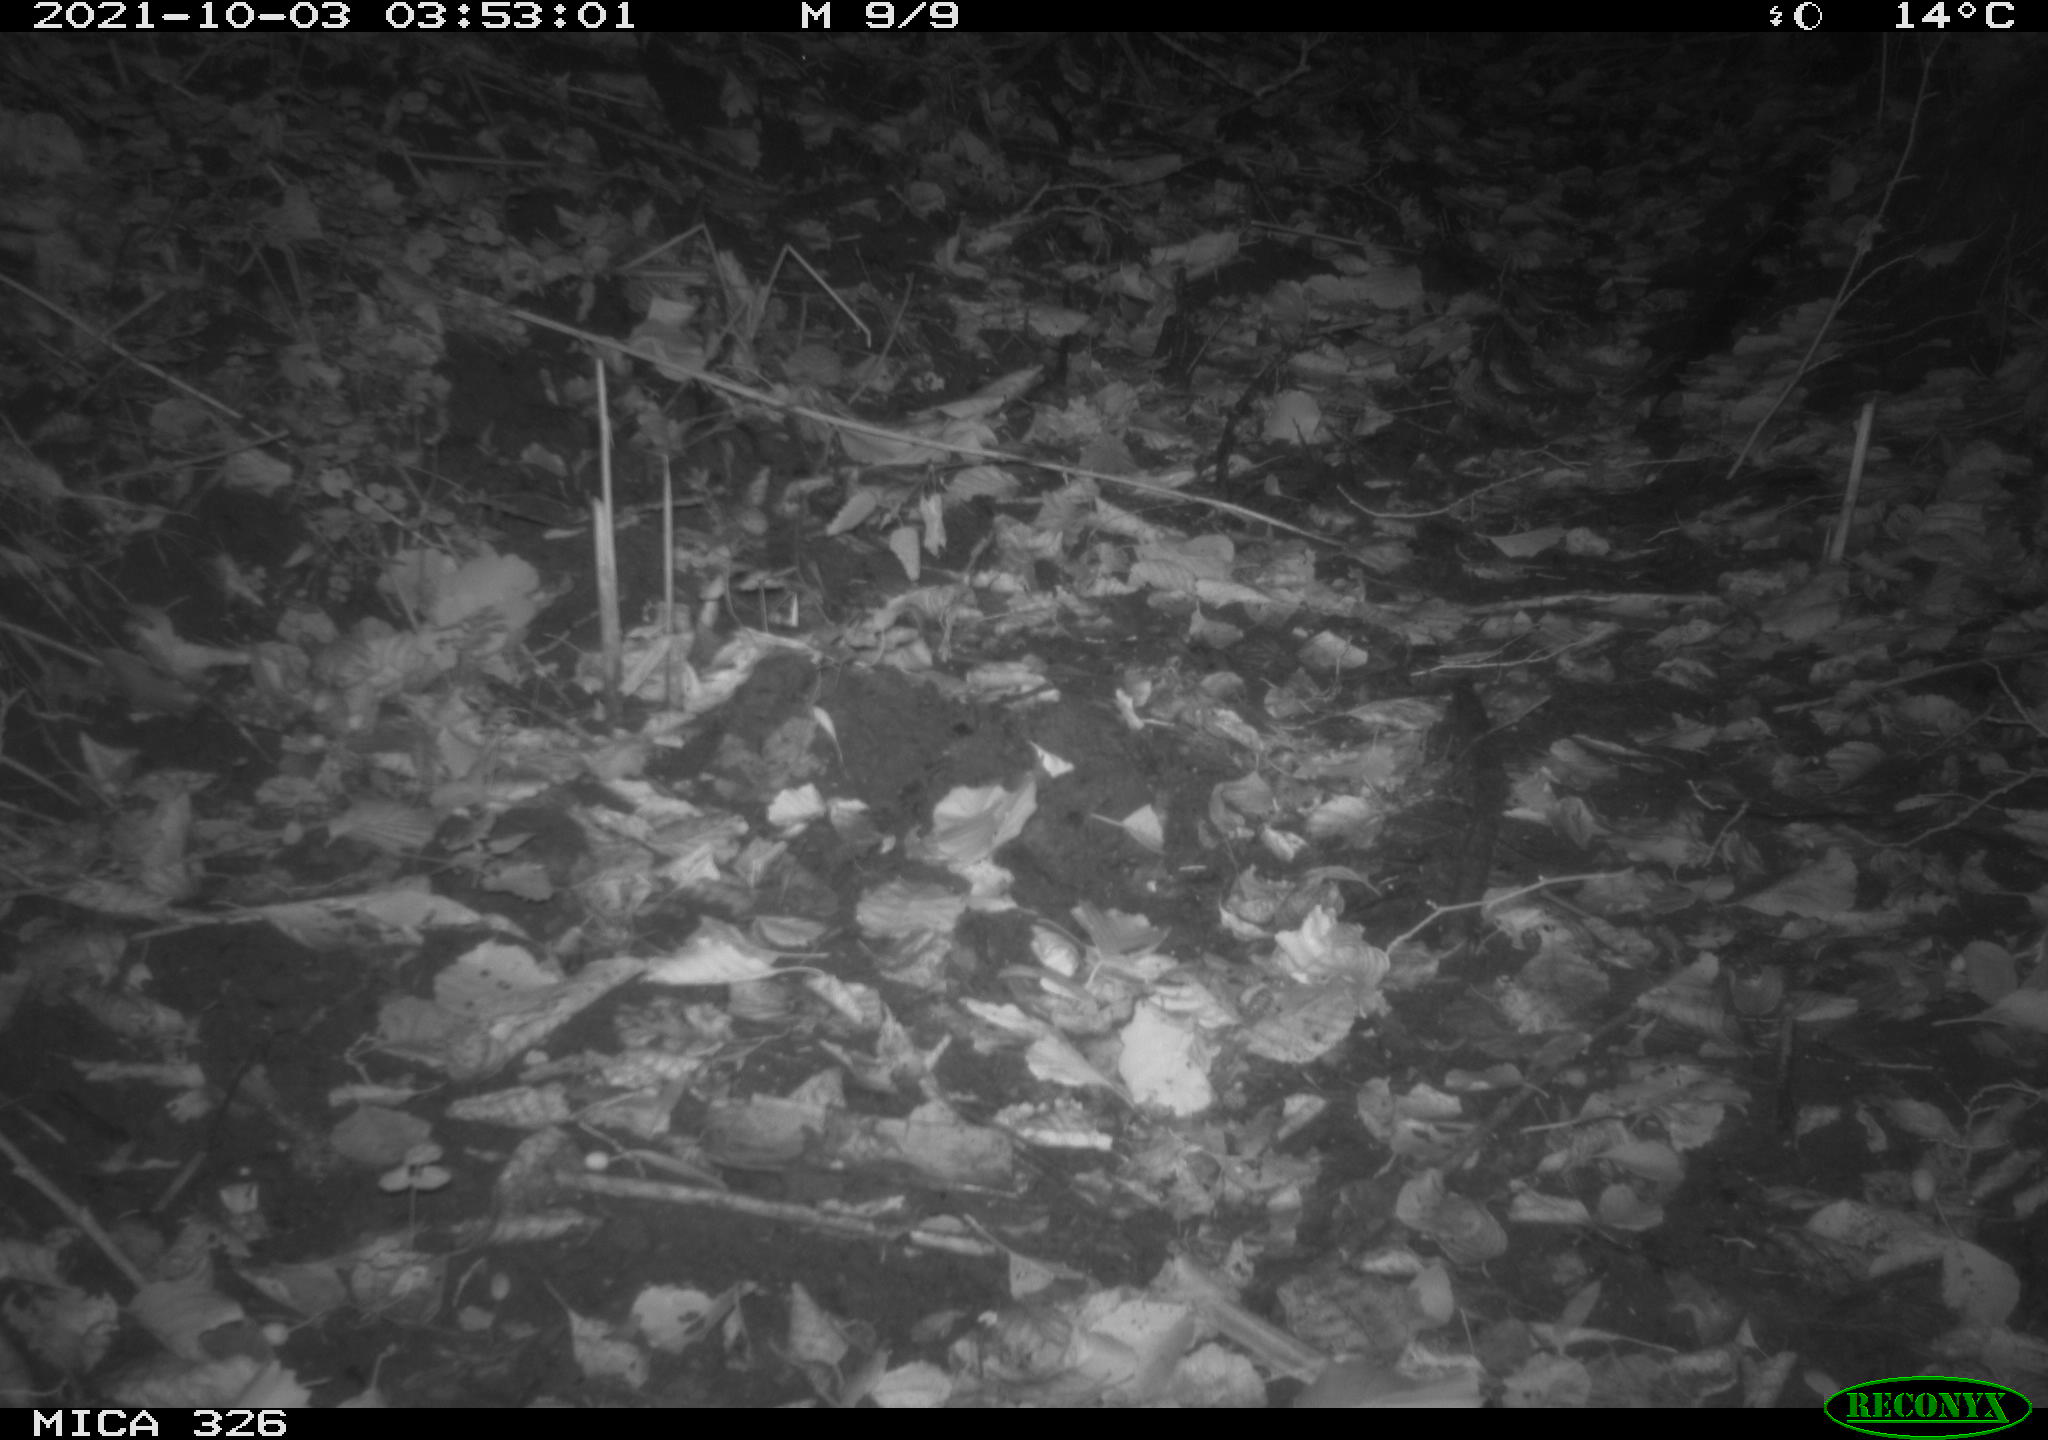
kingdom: Animalia
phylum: Chordata
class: Mammalia
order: Rodentia
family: Myocastoridae
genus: Myocastor
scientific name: Myocastor coypus
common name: Coypu
